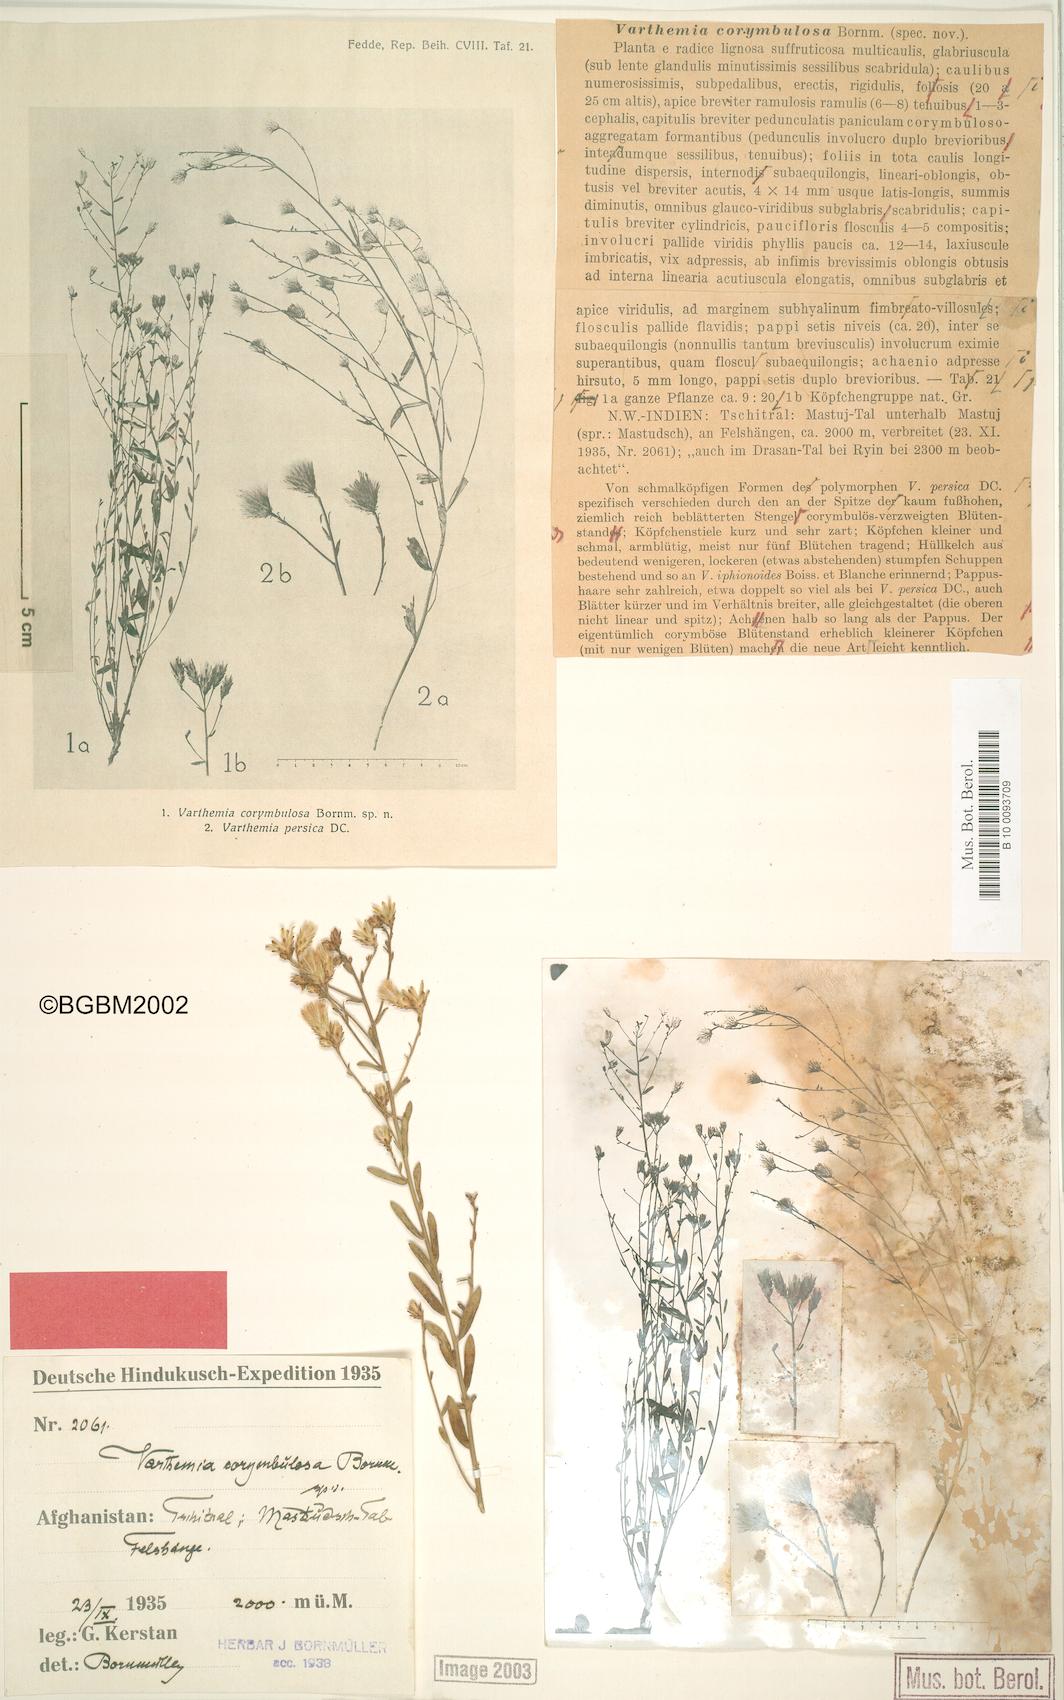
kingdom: Plantae
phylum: Tracheophyta
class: Magnoliopsida
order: Asterales
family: Asteraceae
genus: Galatella
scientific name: Galatella corymbulosa
